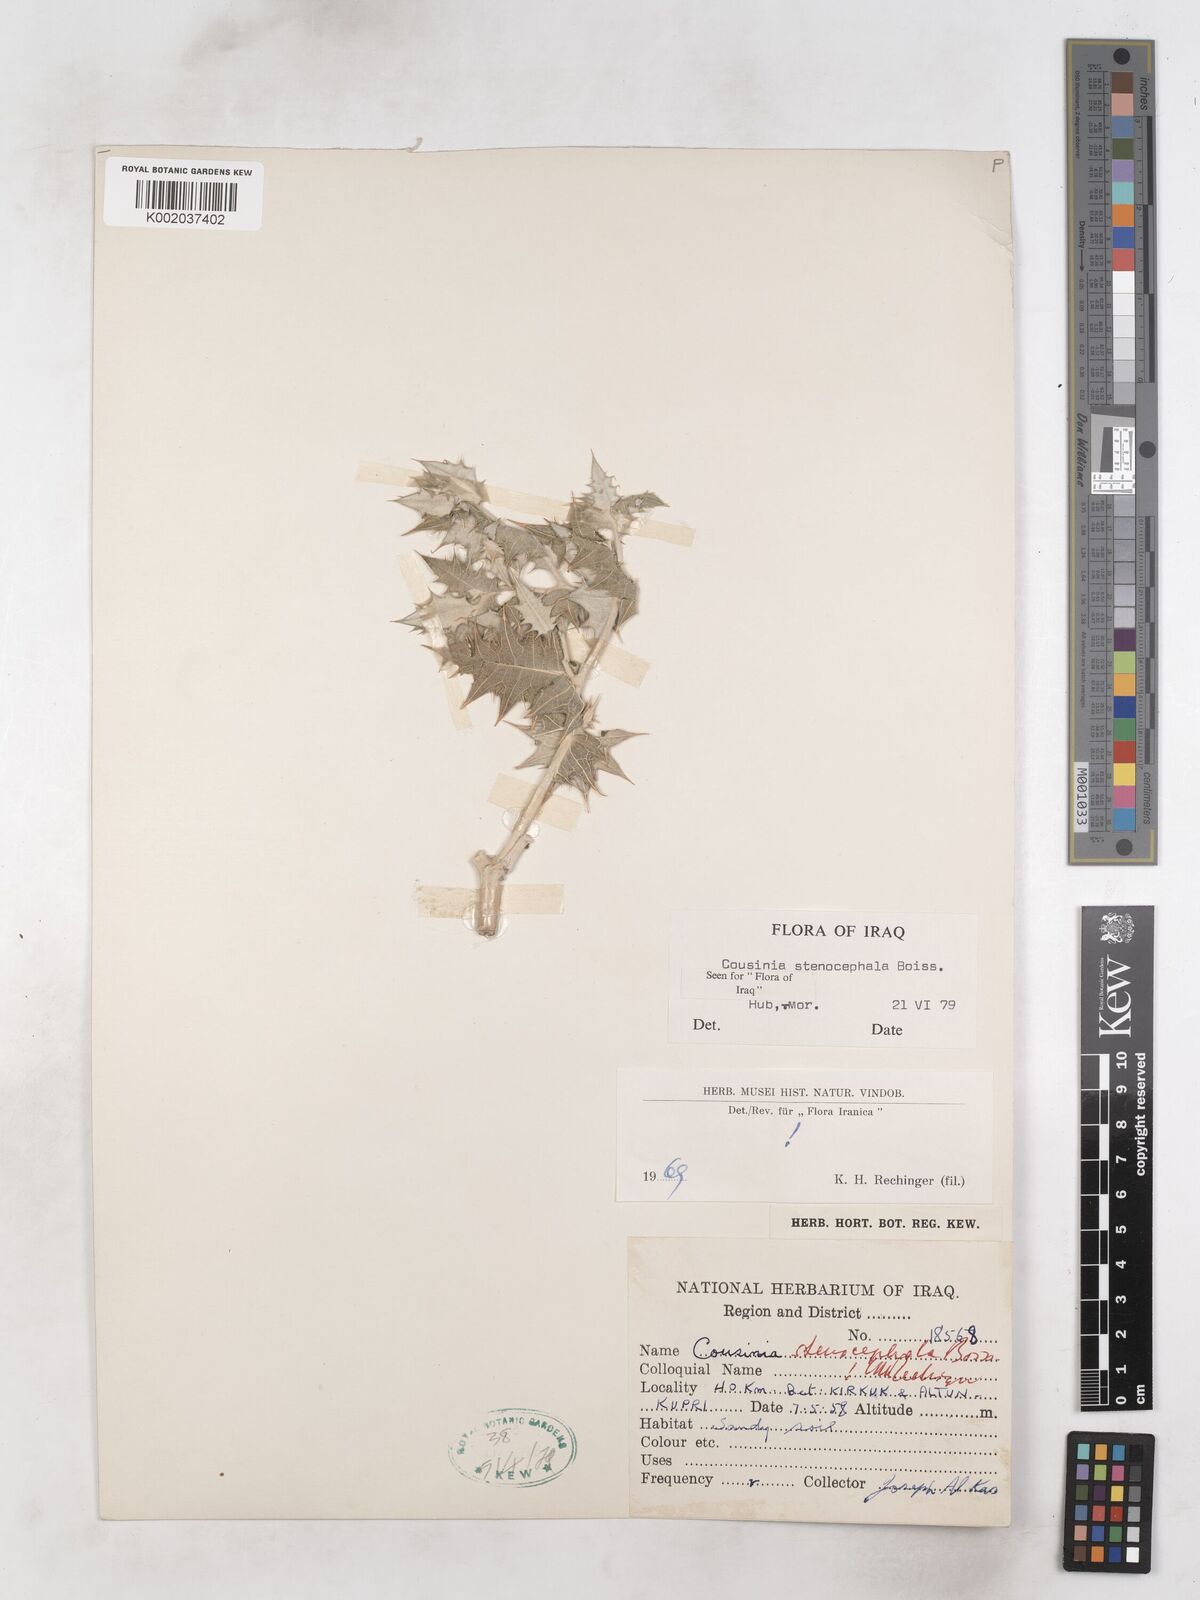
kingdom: Plantae
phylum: Tracheophyta
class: Magnoliopsida
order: Asterales
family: Asteraceae
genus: Cousinia
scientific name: Cousinia stenocephala
